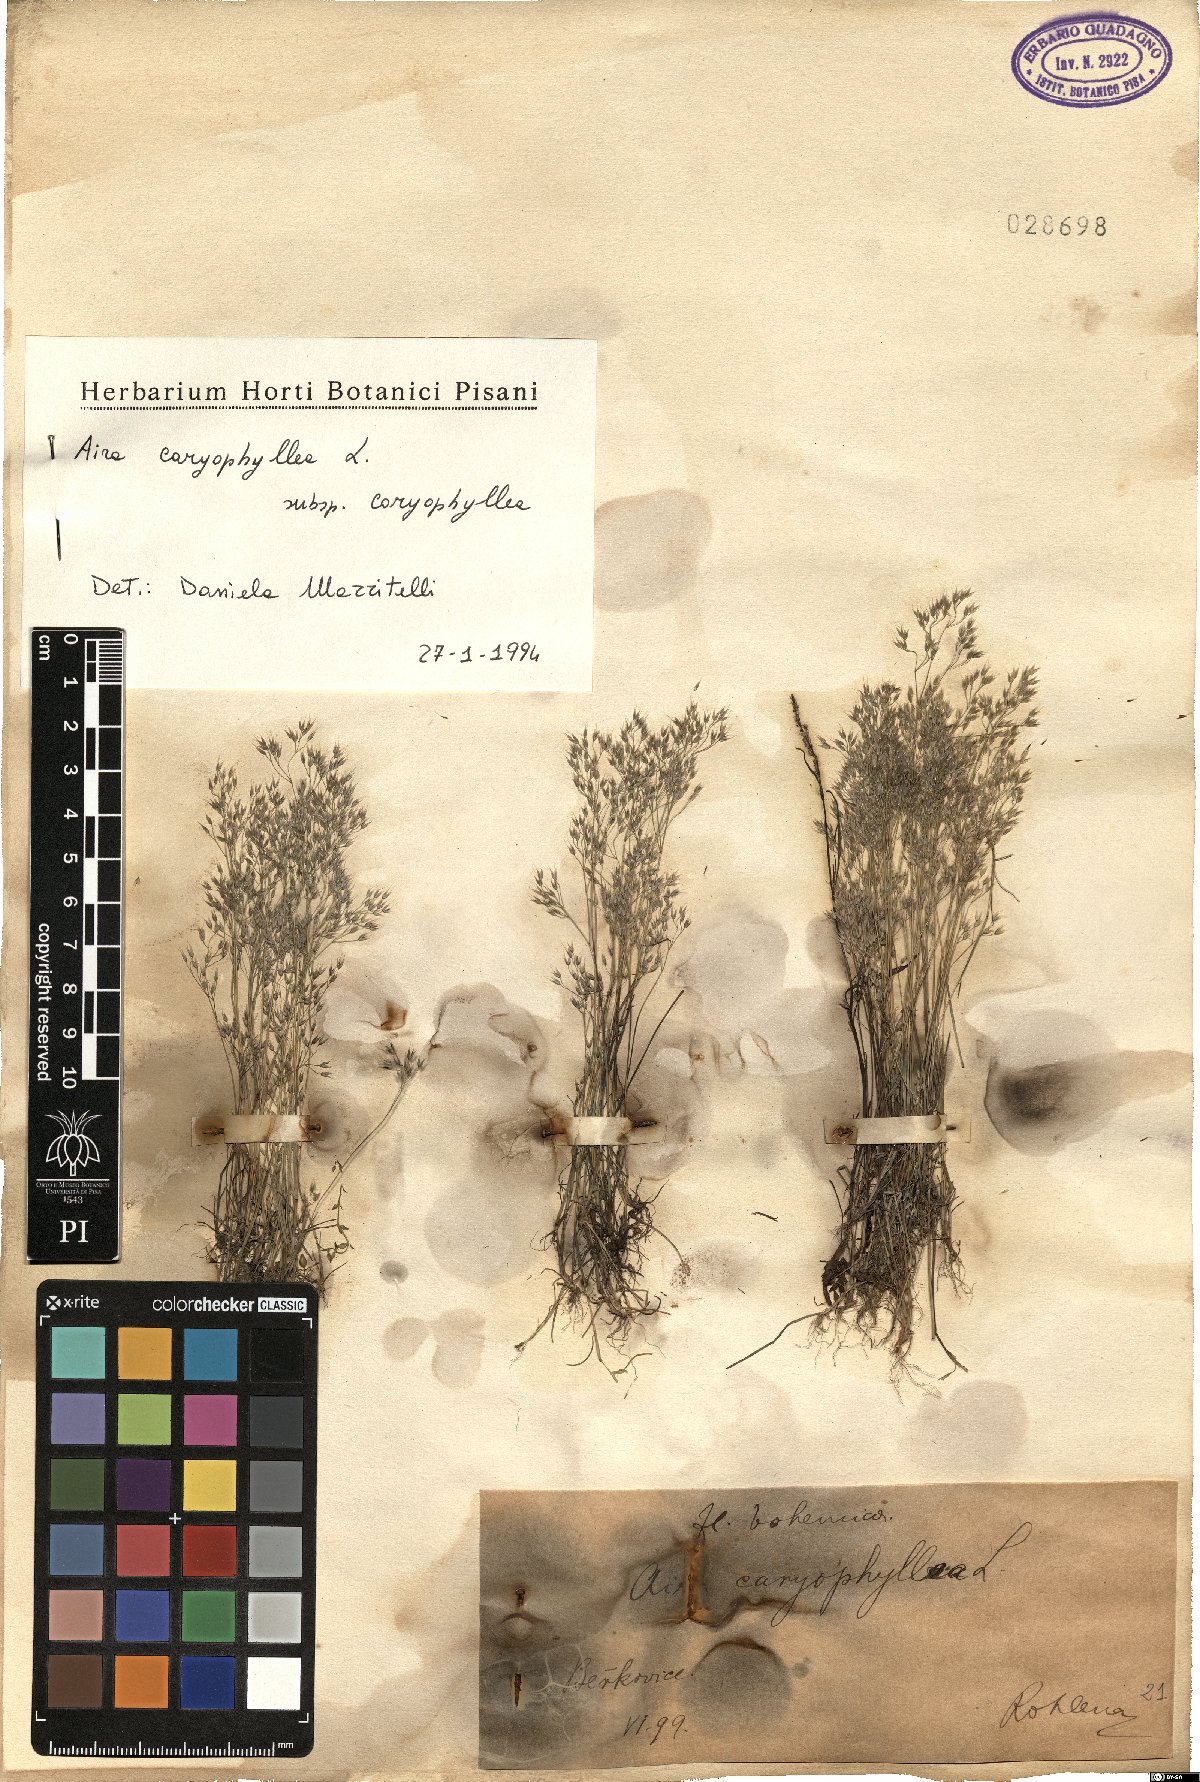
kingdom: Plantae
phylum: Tracheophyta
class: Liliopsida
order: Poales
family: Poaceae
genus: Aira
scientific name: Aira caryophyllea
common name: Silver hairgrass
